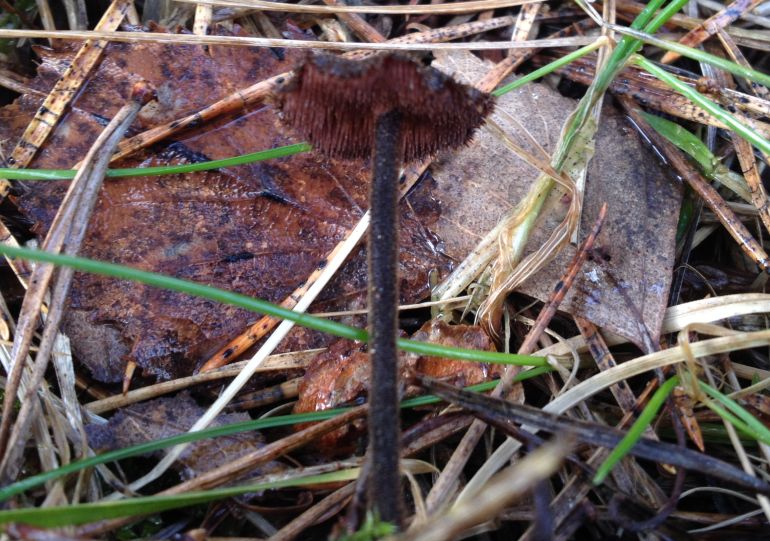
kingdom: Fungi
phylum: Basidiomycota
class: Agaricomycetes
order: Russulales
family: Auriscalpiaceae
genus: Auriscalpium
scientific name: Auriscalpium vulgare
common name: koglepigsvamp
